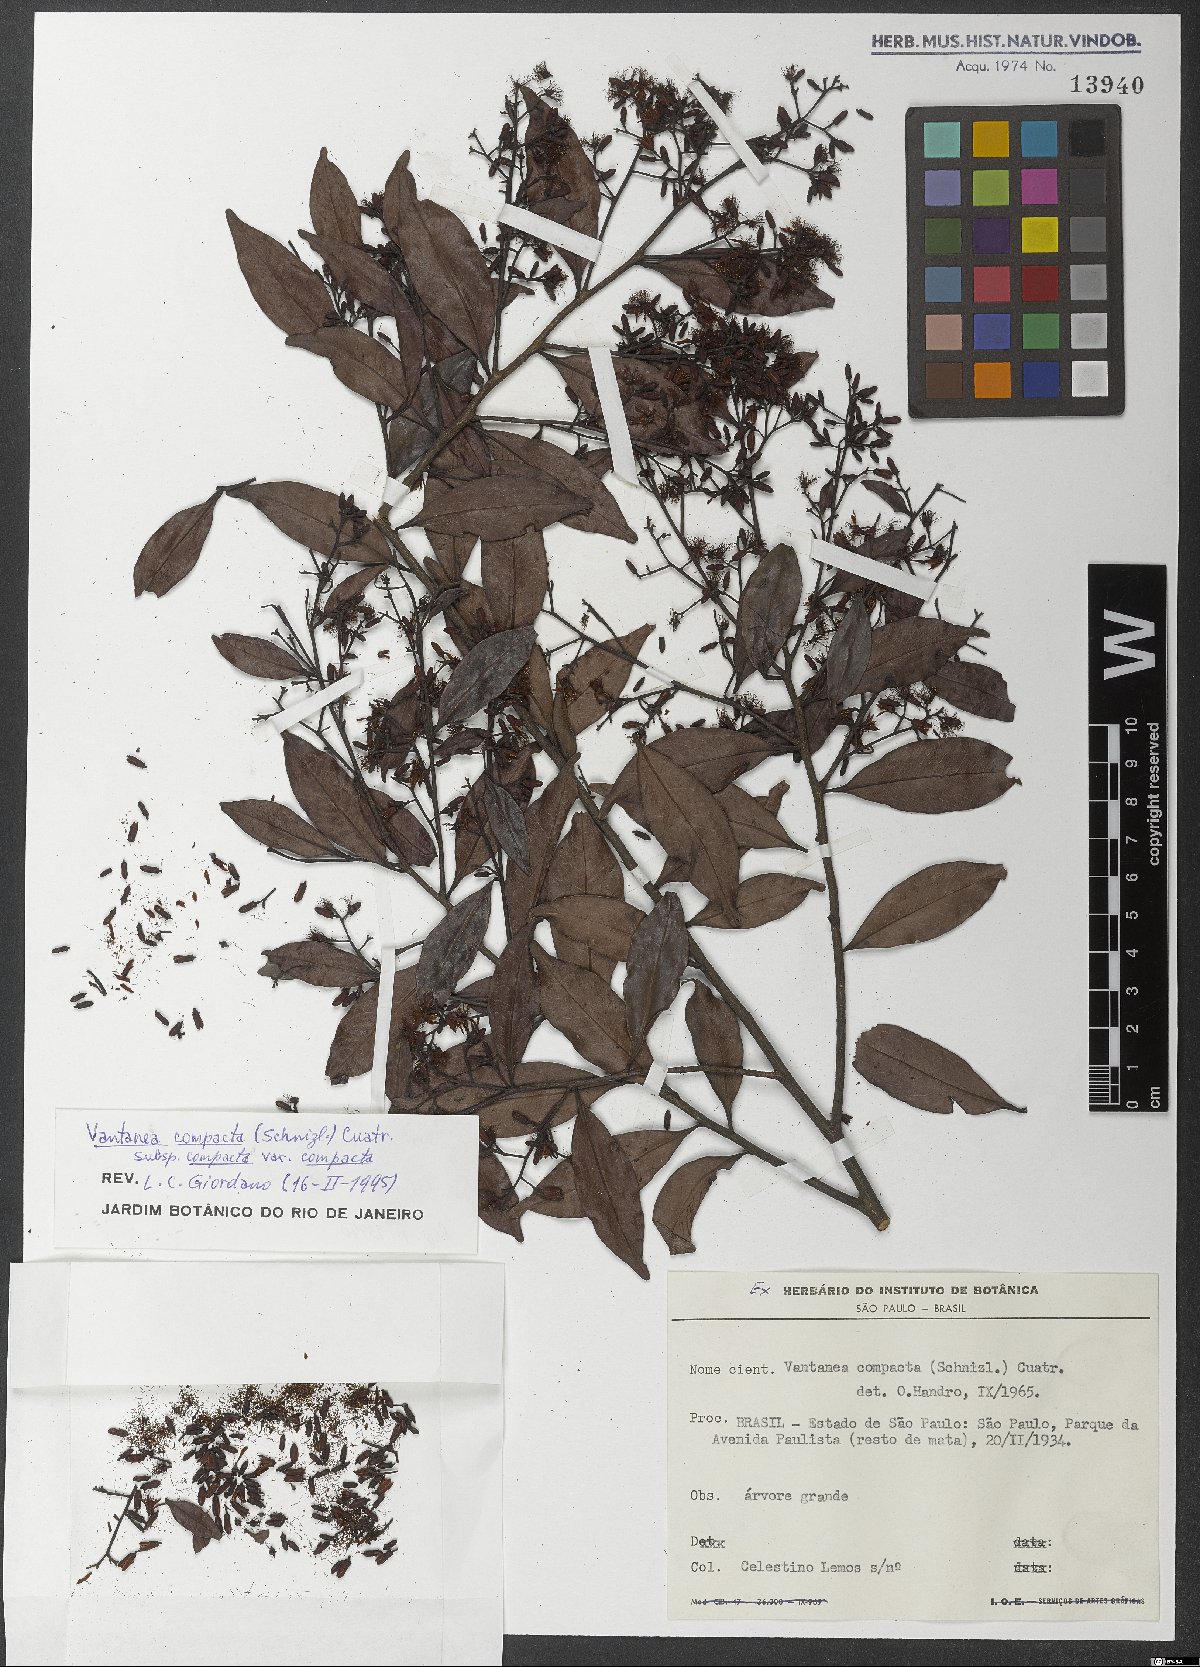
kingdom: Plantae
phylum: Tracheophyta
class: Magnoliopsida
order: Malpighiales
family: Humiriaceae
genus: Vantanea
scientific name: Vantanea compacta
